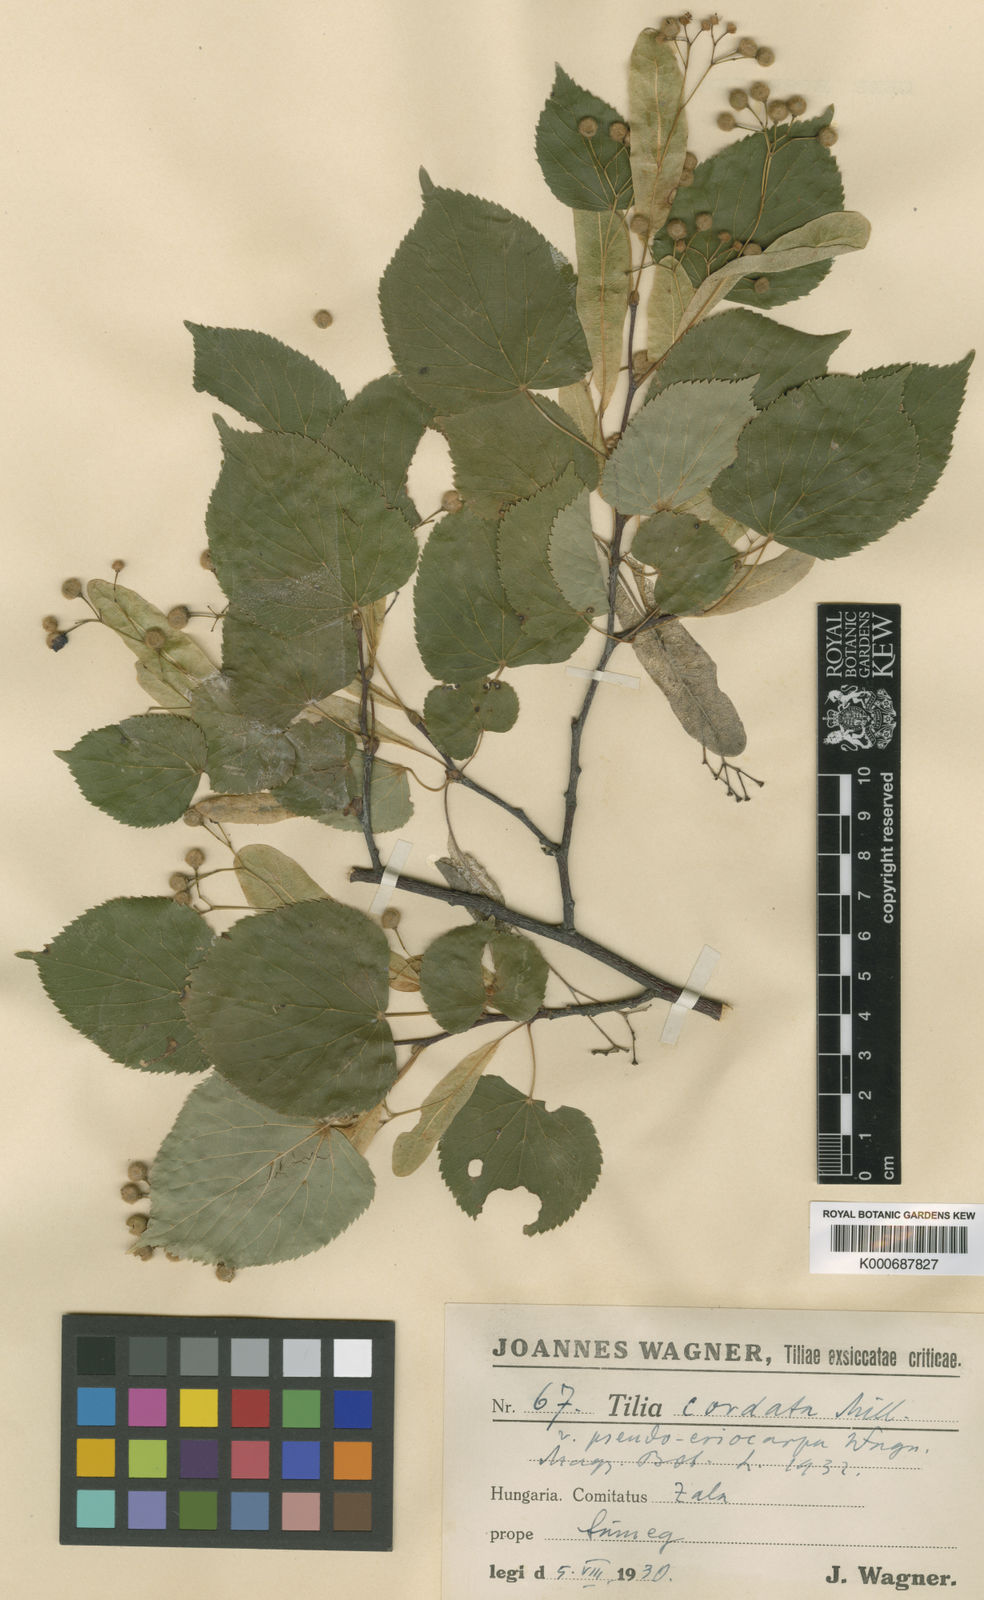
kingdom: Plantae
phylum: Tracheophyta
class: Magnoliopsida
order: Malvales
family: Malvaceae
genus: Tilia
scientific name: Tilia cordata
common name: Small-leaved lime
